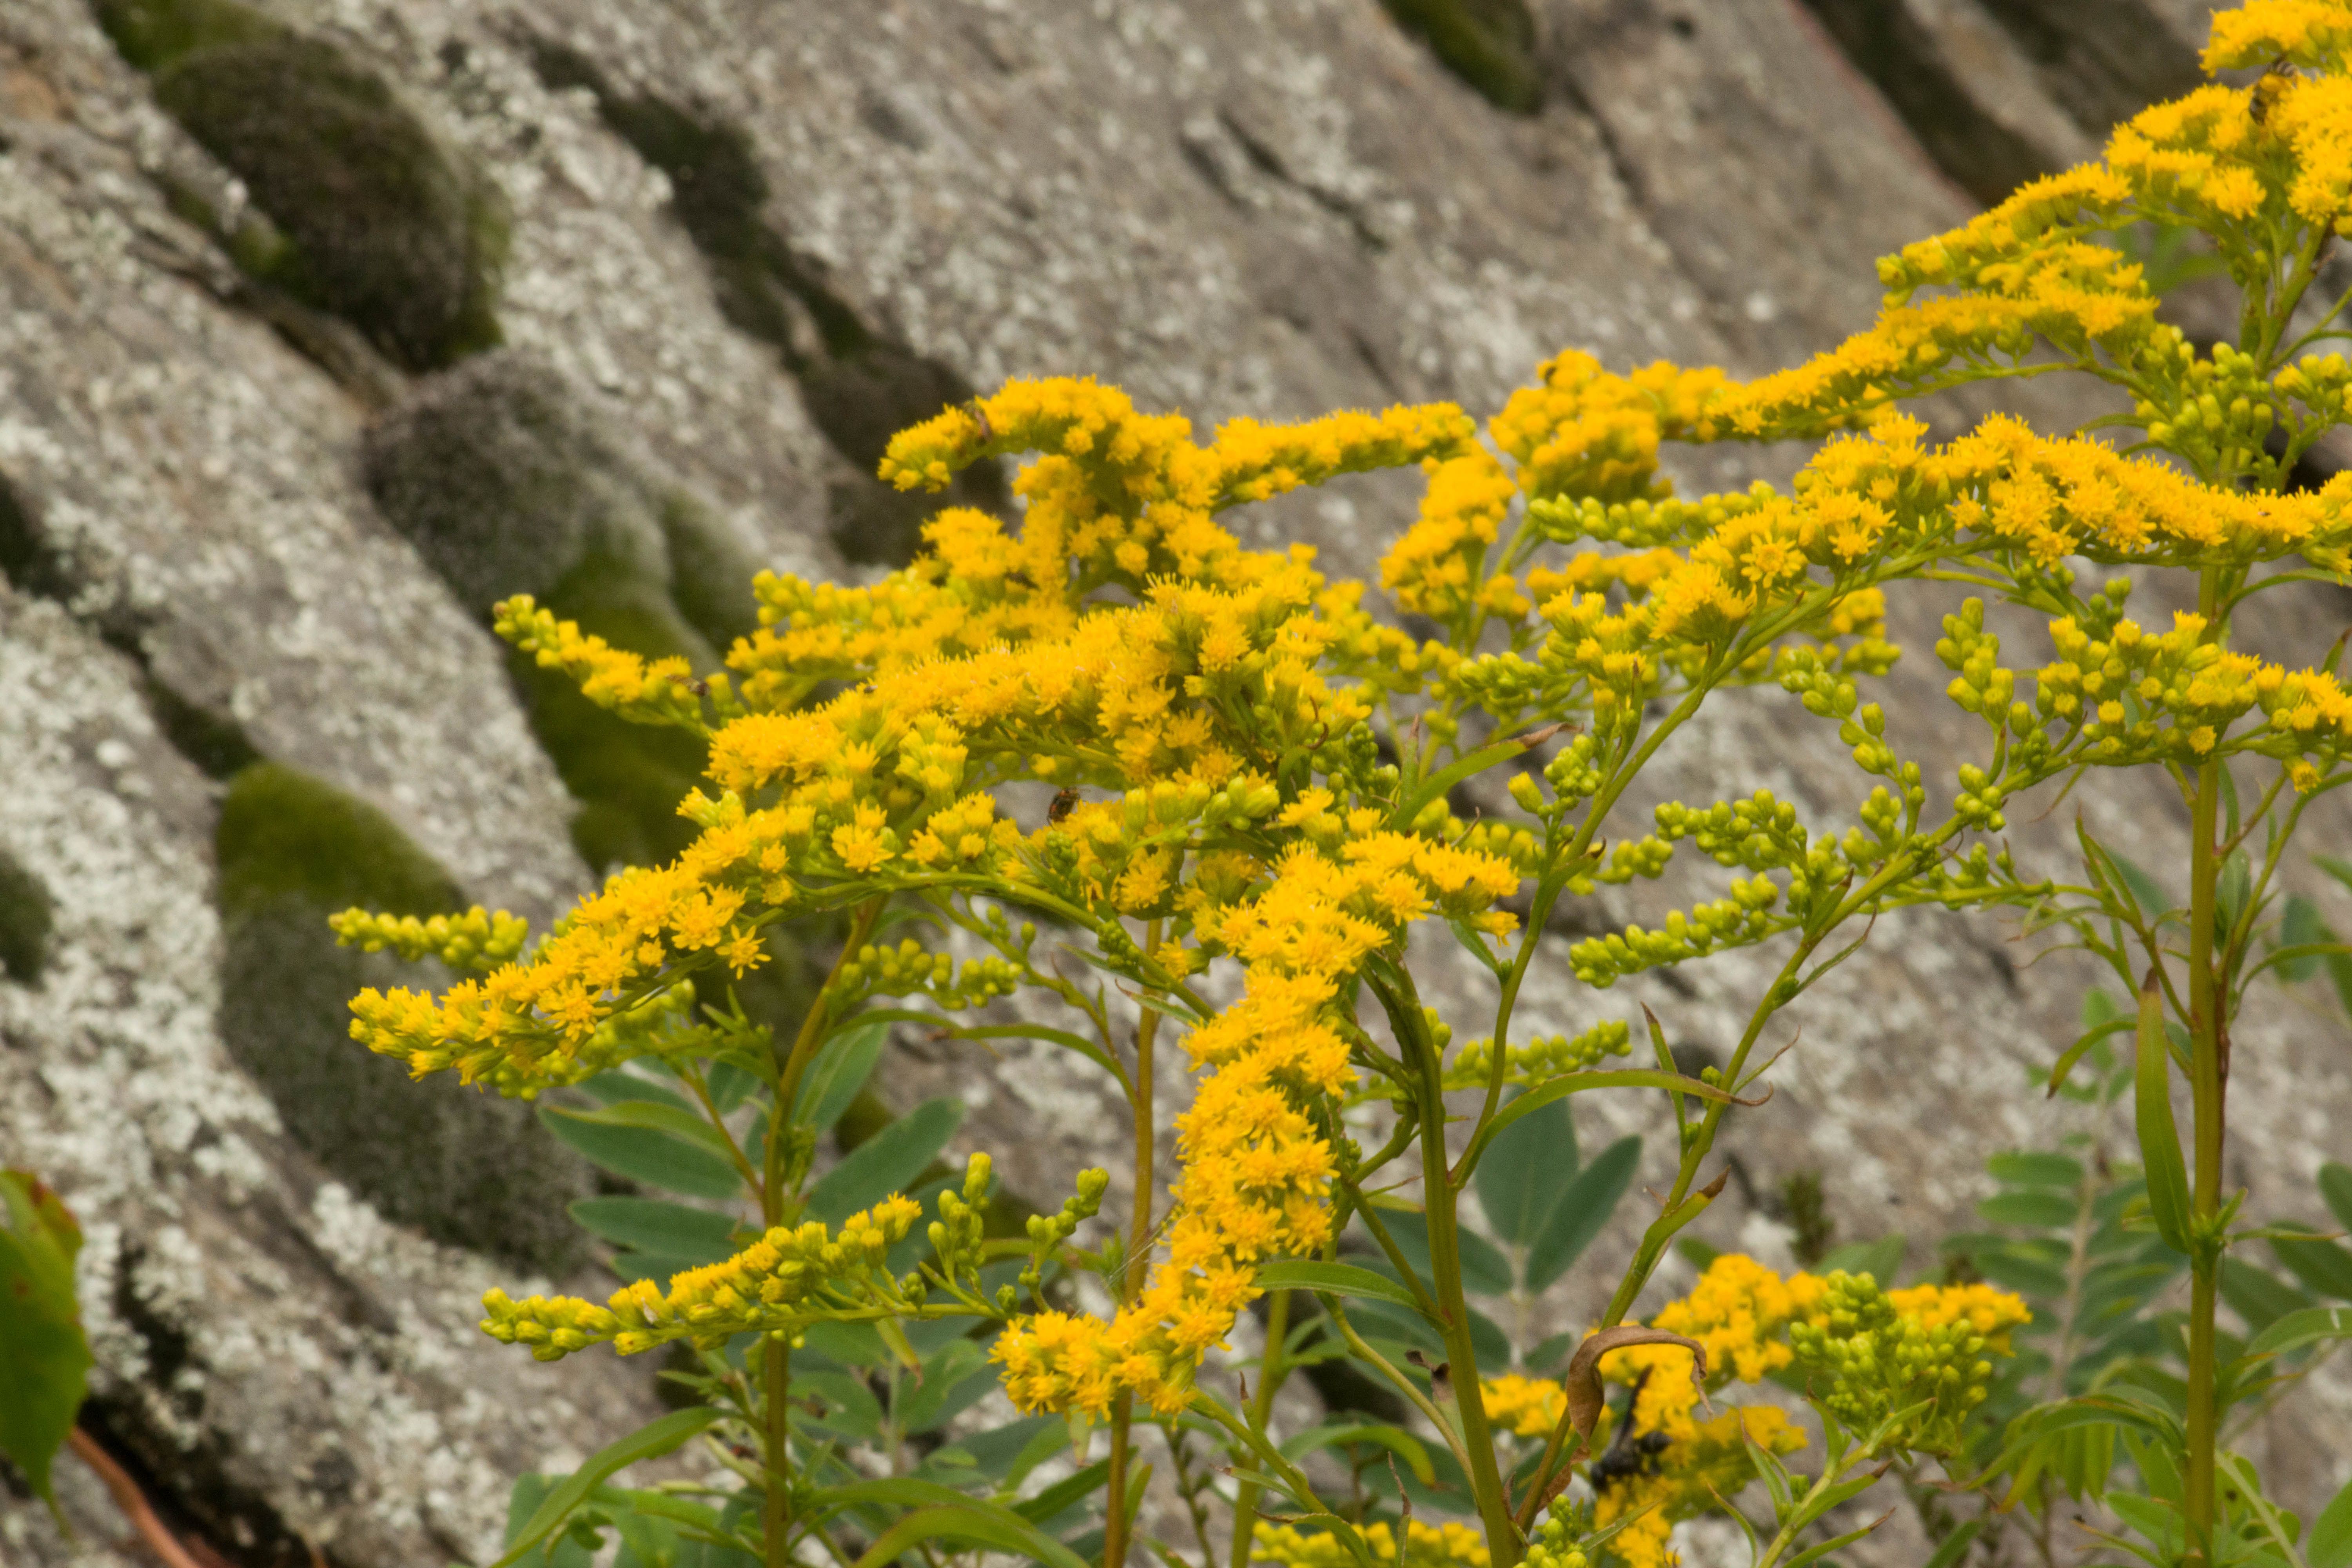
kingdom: Plantae
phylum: Tracheophyta
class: Magnoliopsida
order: Asterales
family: Asteraceae
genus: Solidago
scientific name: Solidago juncea
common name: Early goldenrod
